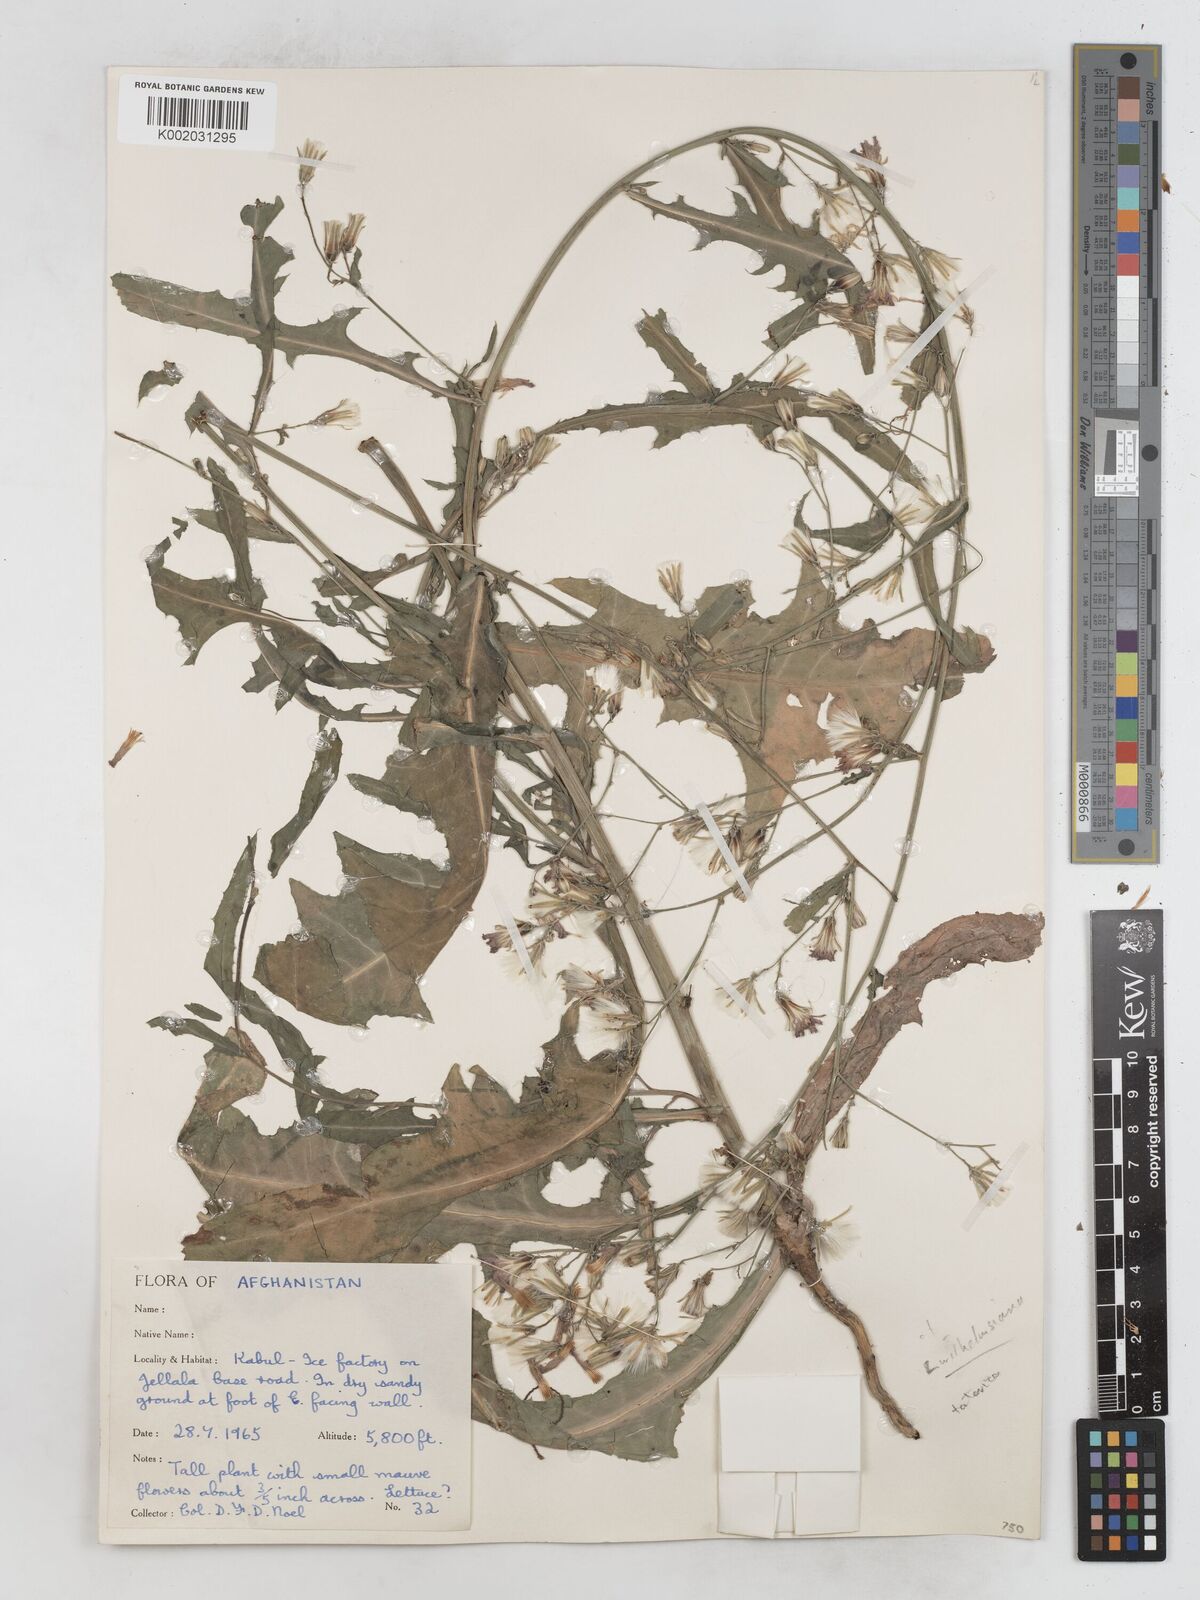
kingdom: Plantae
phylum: Tracheophyta
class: Magnoliopsida
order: Asterales
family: Asteraceae
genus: Lactuca
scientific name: Lactuca tatarica
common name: Blue lettuce
